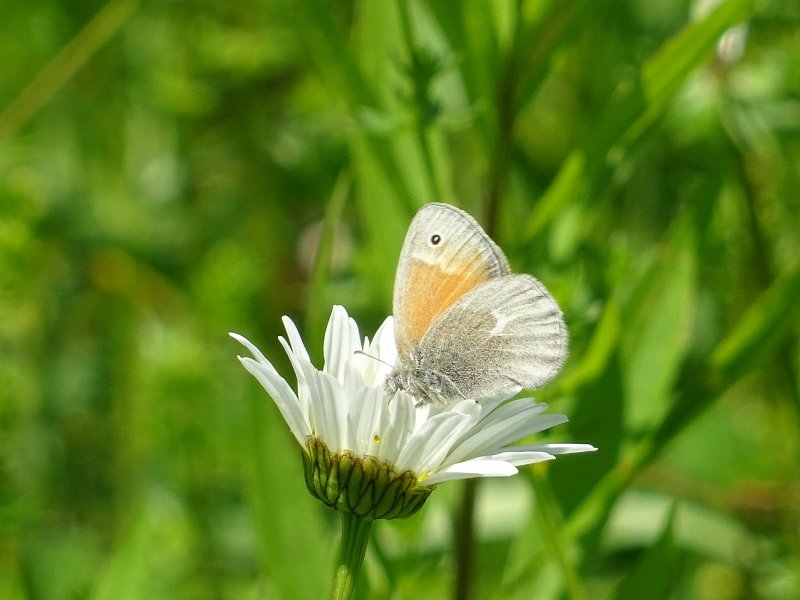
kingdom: Animalia
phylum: Arthropoda
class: Insecta
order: Lepidoptera
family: Nymphalidae
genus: Coenonympha
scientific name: Coenonympha tullia
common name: Large Heath
